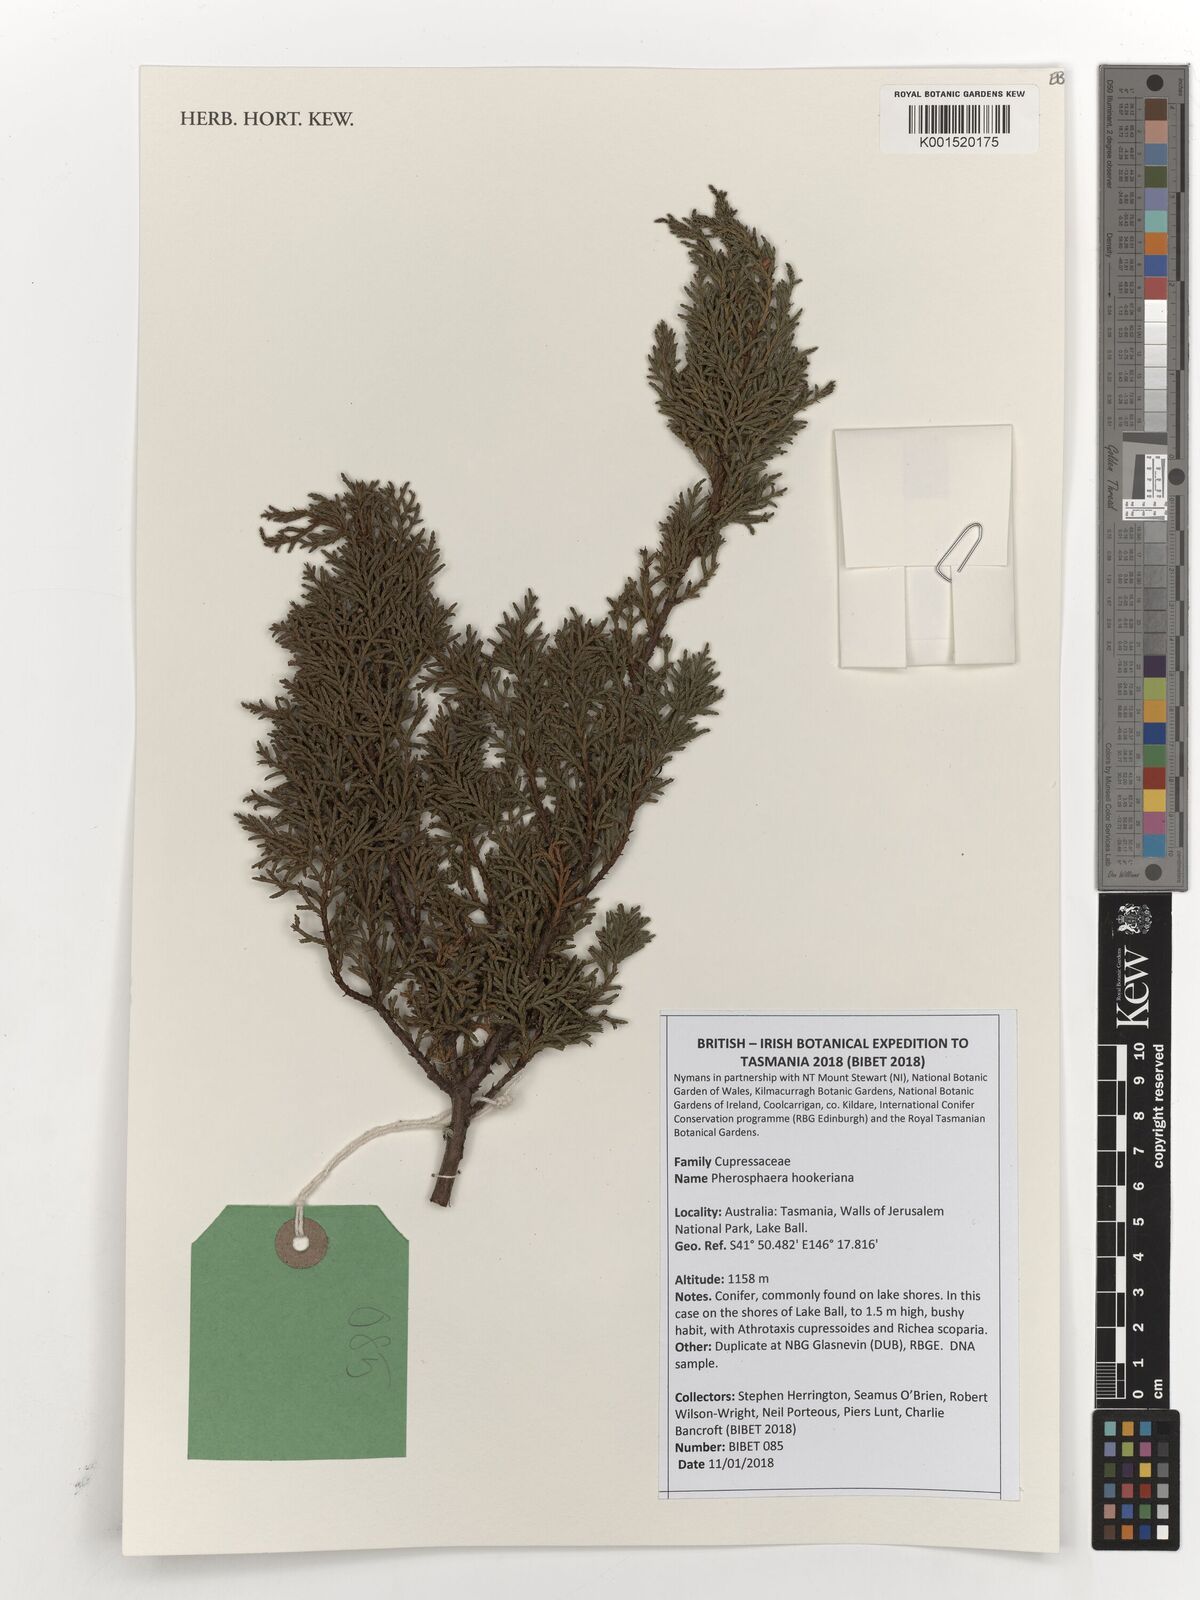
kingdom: Plantae
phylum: Tracheophyta
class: Pinopsida
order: Pinales
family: Podocarpaceae
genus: Pherosphaera
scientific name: Pherosphaera hookeriana
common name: Mount mawson pine
